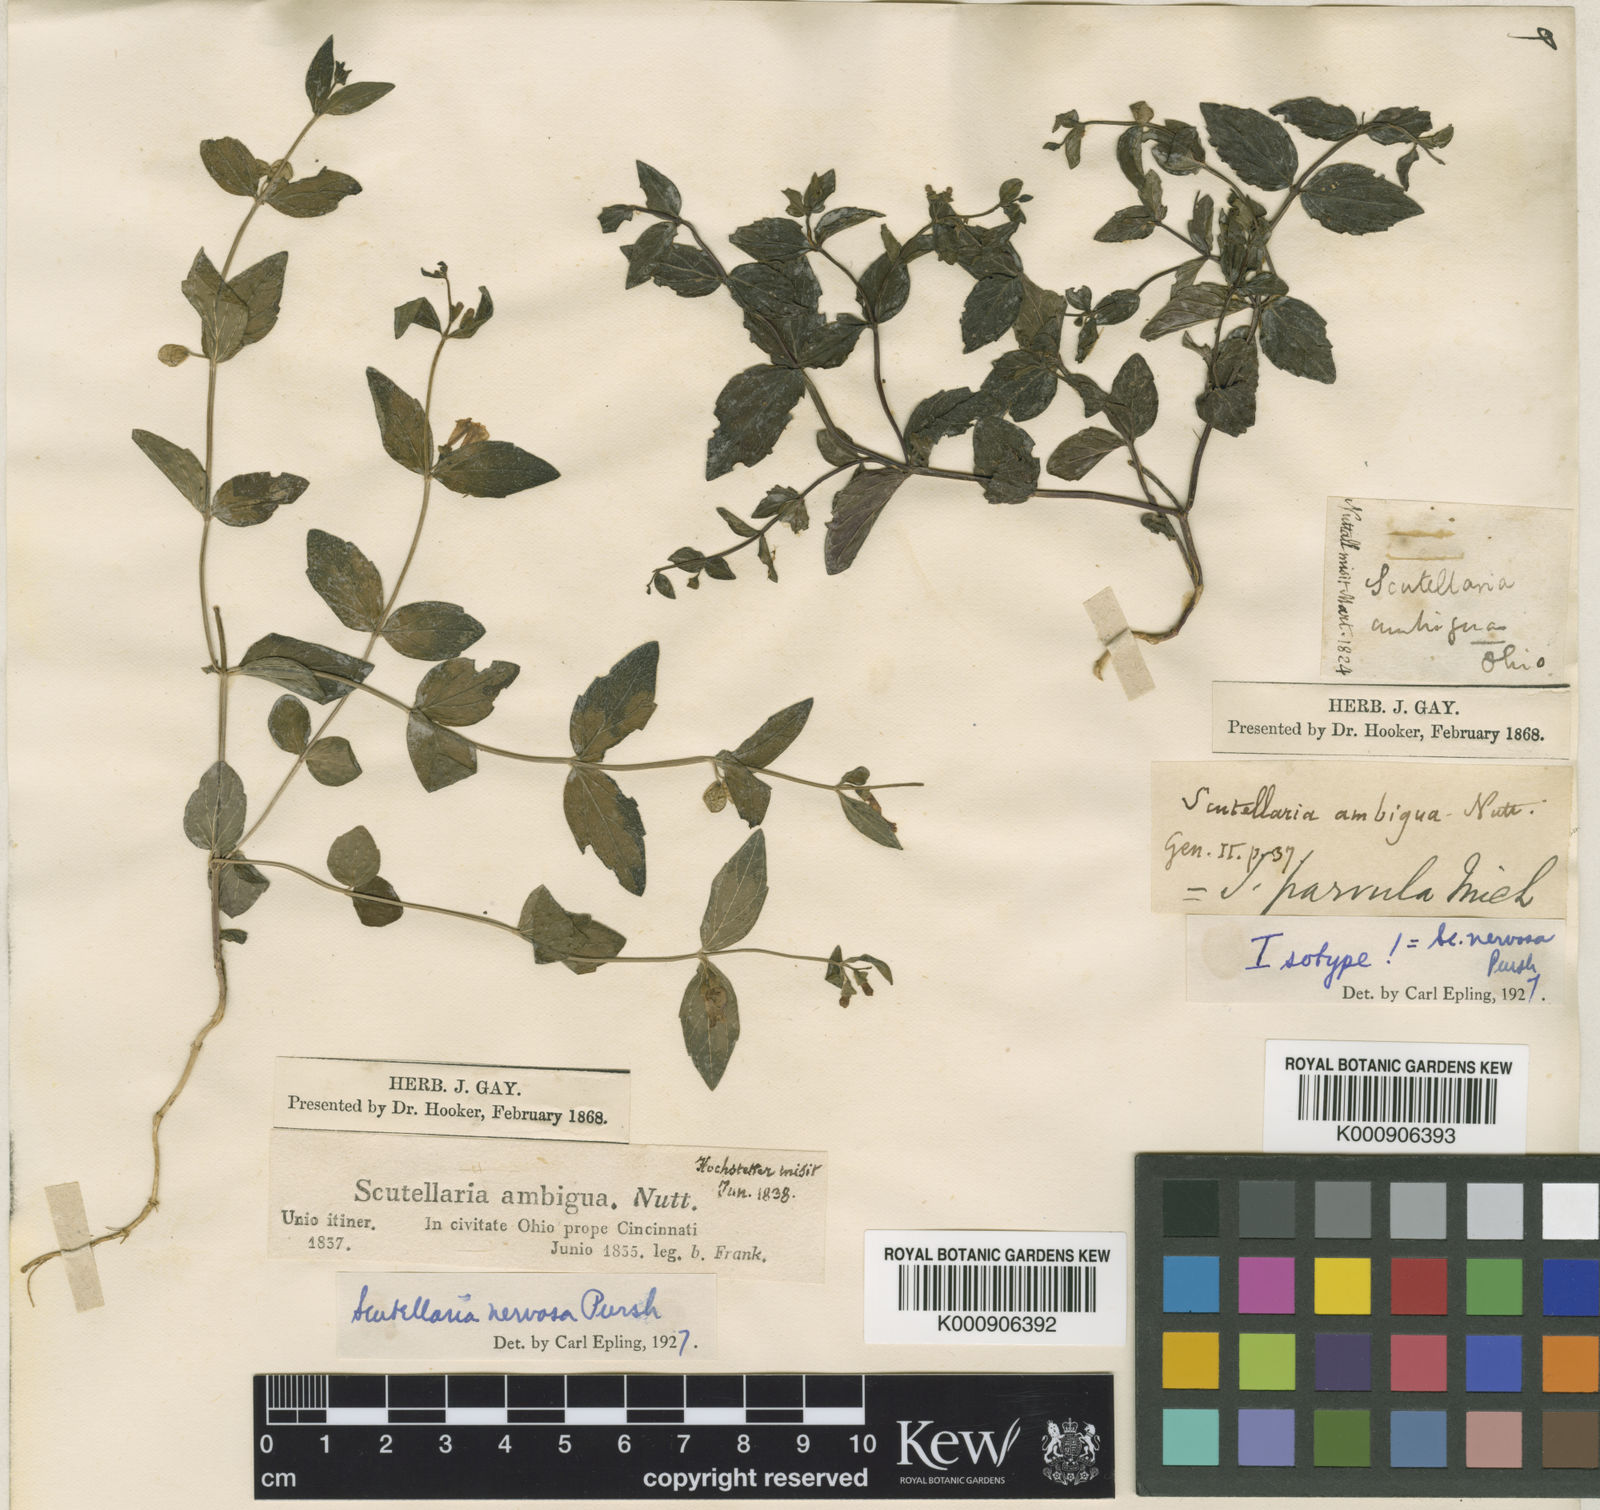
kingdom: Plantae
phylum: Tracheophyta
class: Magnoliopsida
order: Lamiales
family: Lamiaceae
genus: Scutellaria
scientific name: Scutellaria nervosa
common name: Bottomland skullcap
